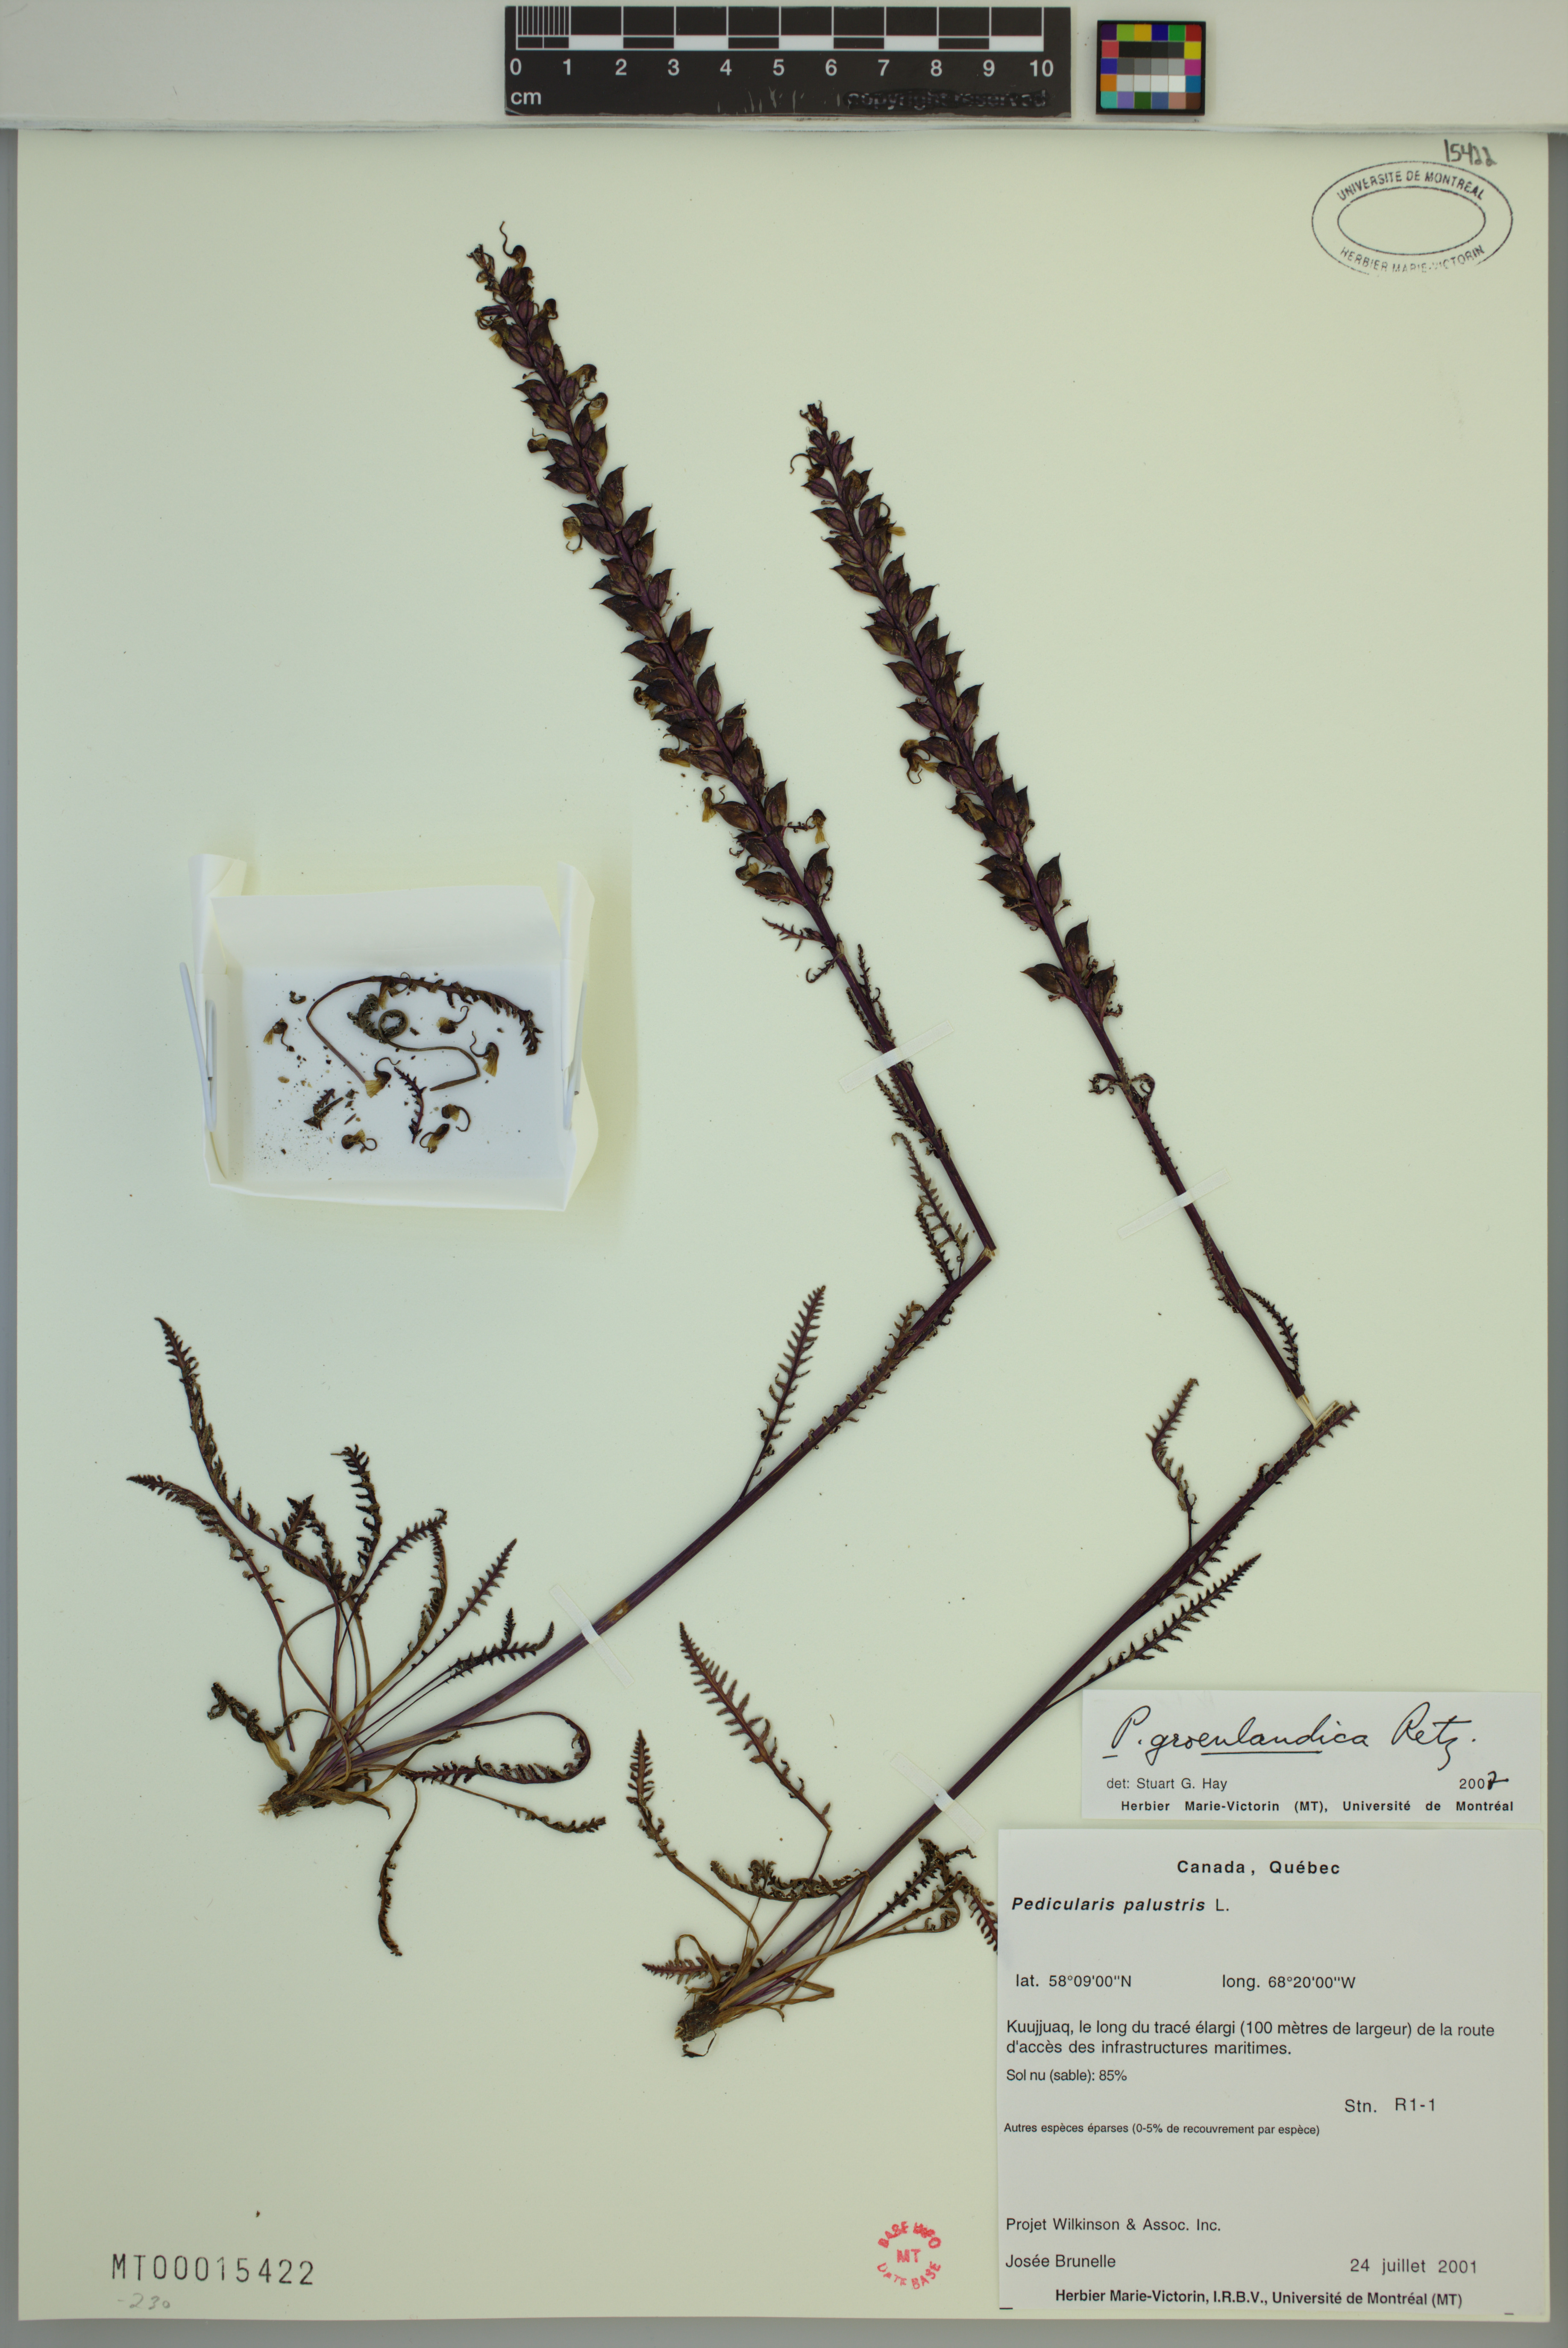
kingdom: Plantae
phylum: Tracheophyta
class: Magnoliopsida
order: Lamiales
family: Orobanchaceae
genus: Pedicularis
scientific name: Pedicularis groenlandica
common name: Elephant's-head
